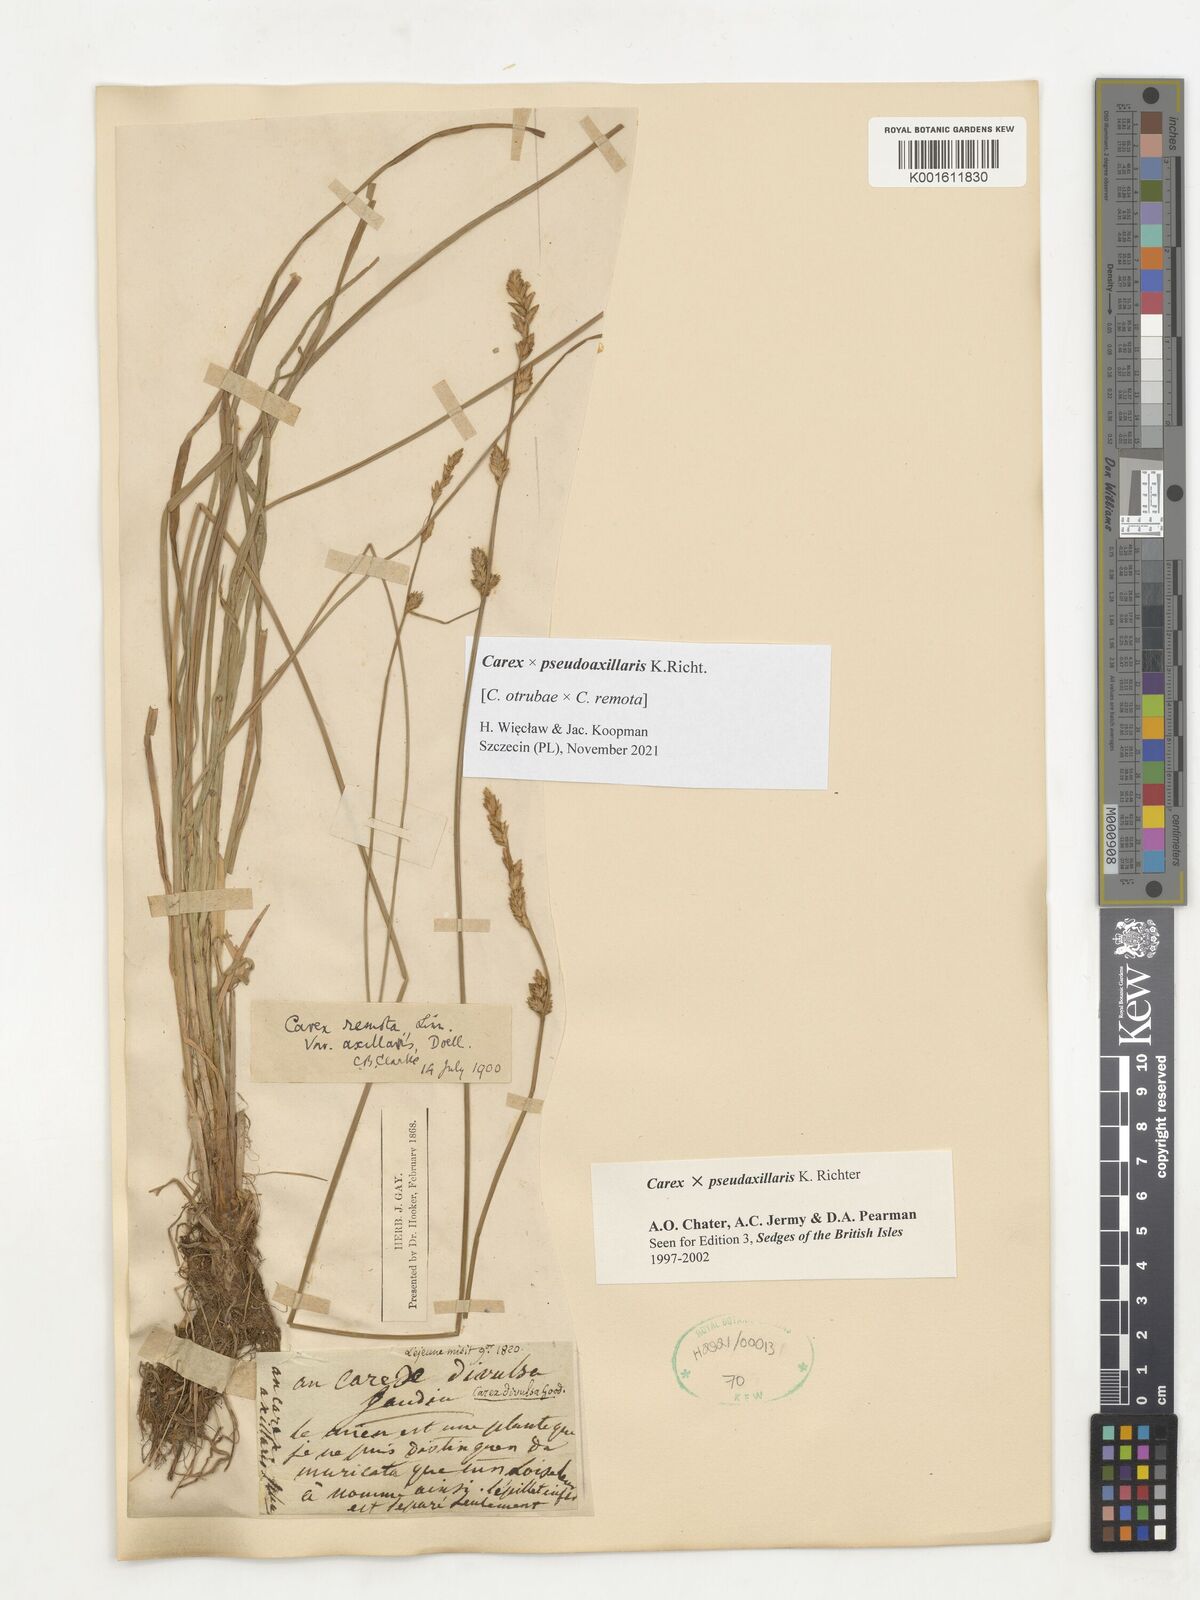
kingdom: Plantae
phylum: Tracheophyta
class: Liliopsida
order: Poales
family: Cyperaceae
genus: Carex
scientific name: Carex pseudoaxillaris
